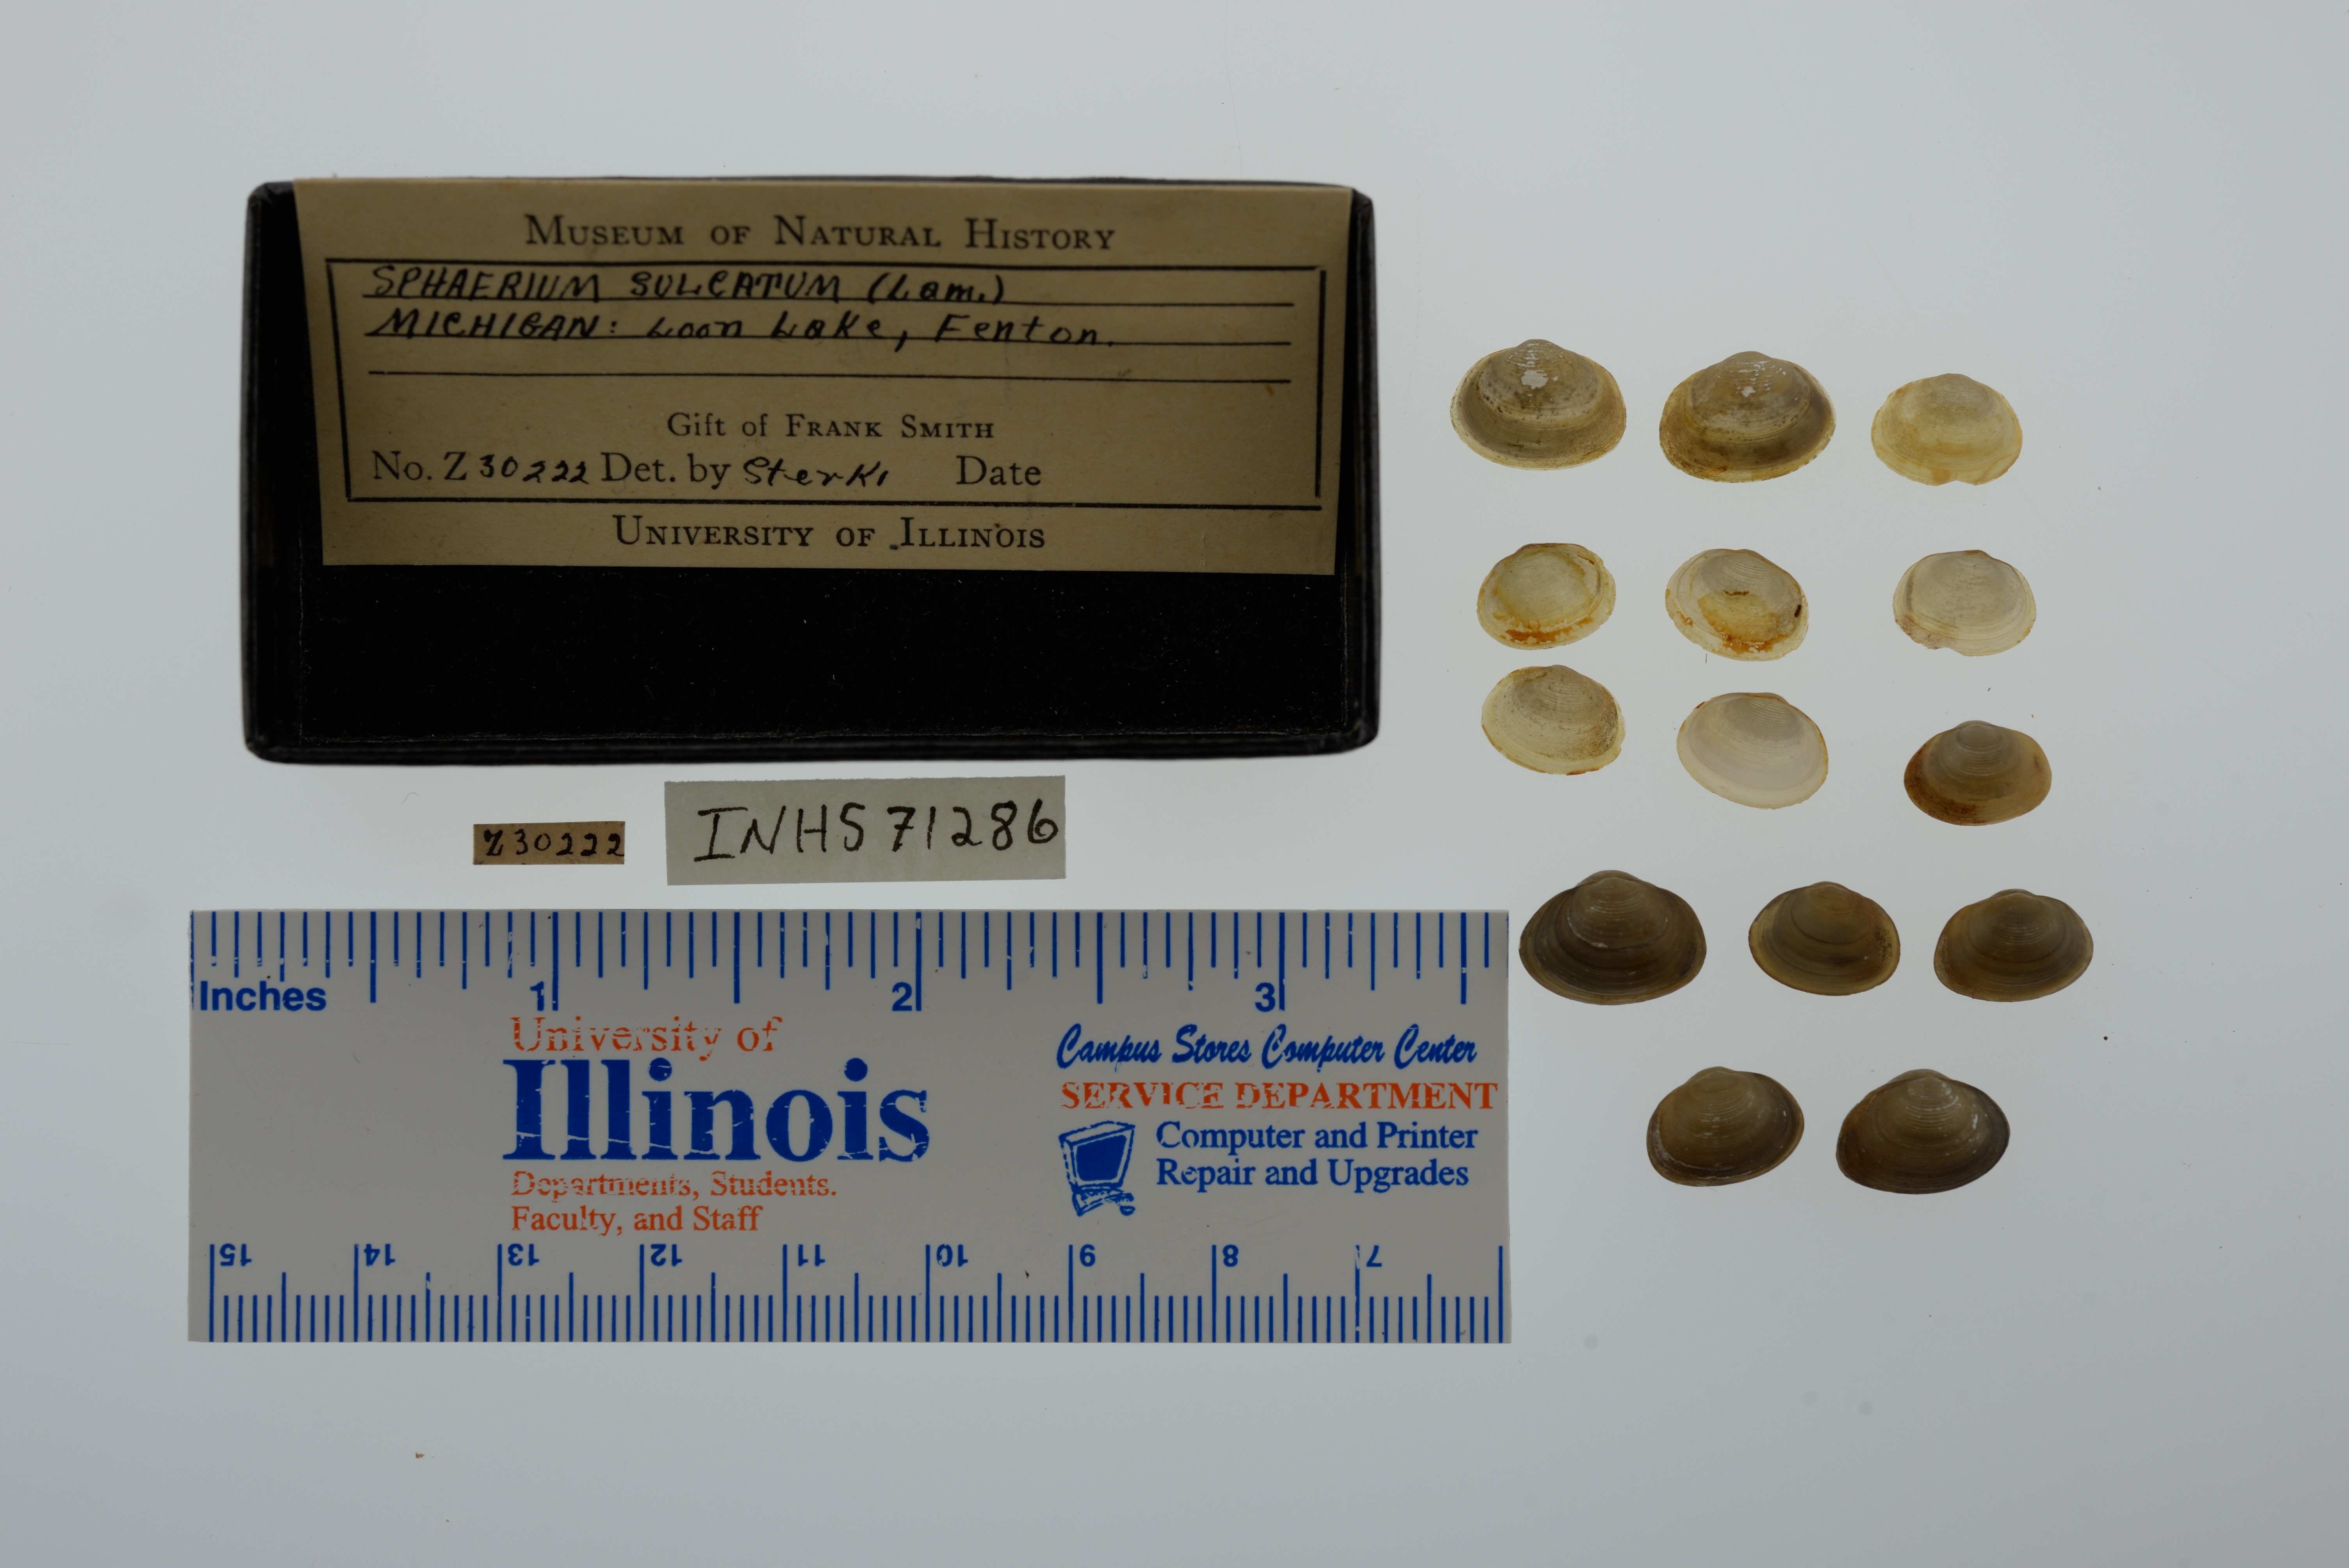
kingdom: Animalia
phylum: Mollusca
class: Bivalvia
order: Sphaeriida
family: Sphaeriidae
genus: Sphaerium
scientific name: Sphaerium simile
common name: Grooved fingernailclam
